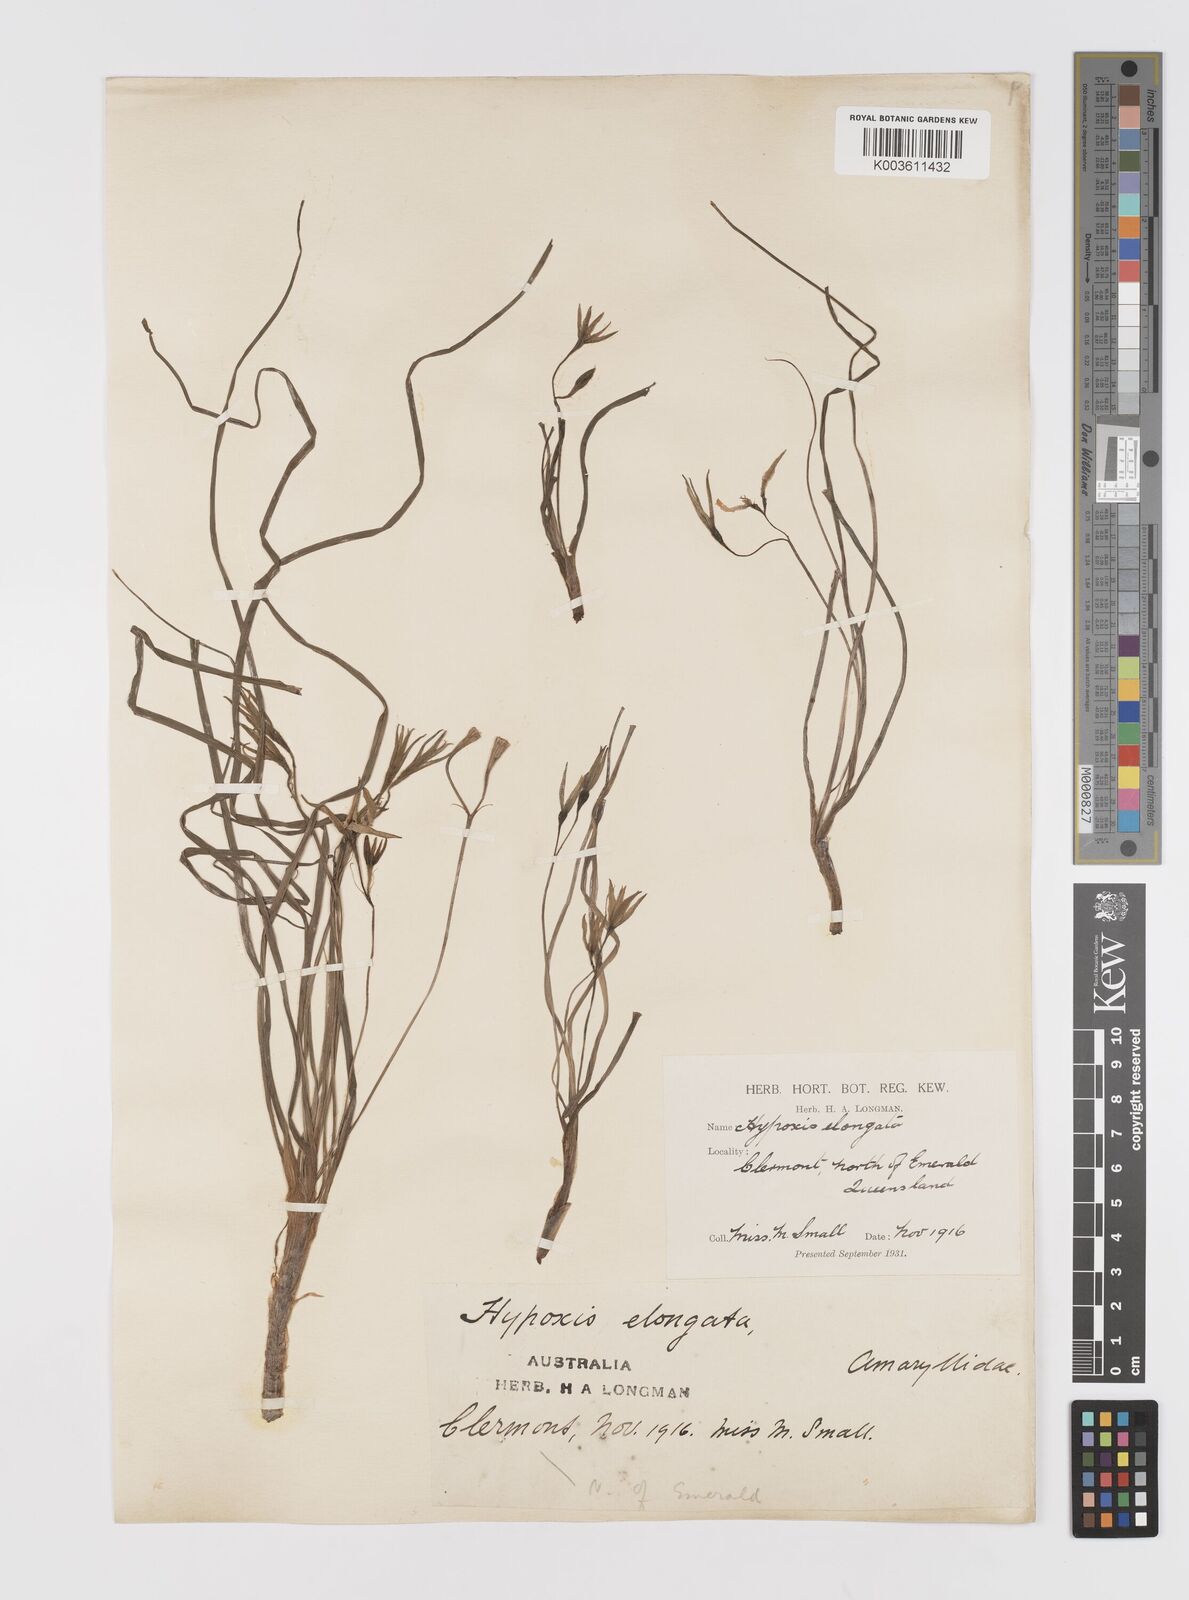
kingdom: Plantae
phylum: Tracheophyta
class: Liliopsida
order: Asparagales
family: Hypoxidaceae
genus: Hypoxis
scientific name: Hypoxis
